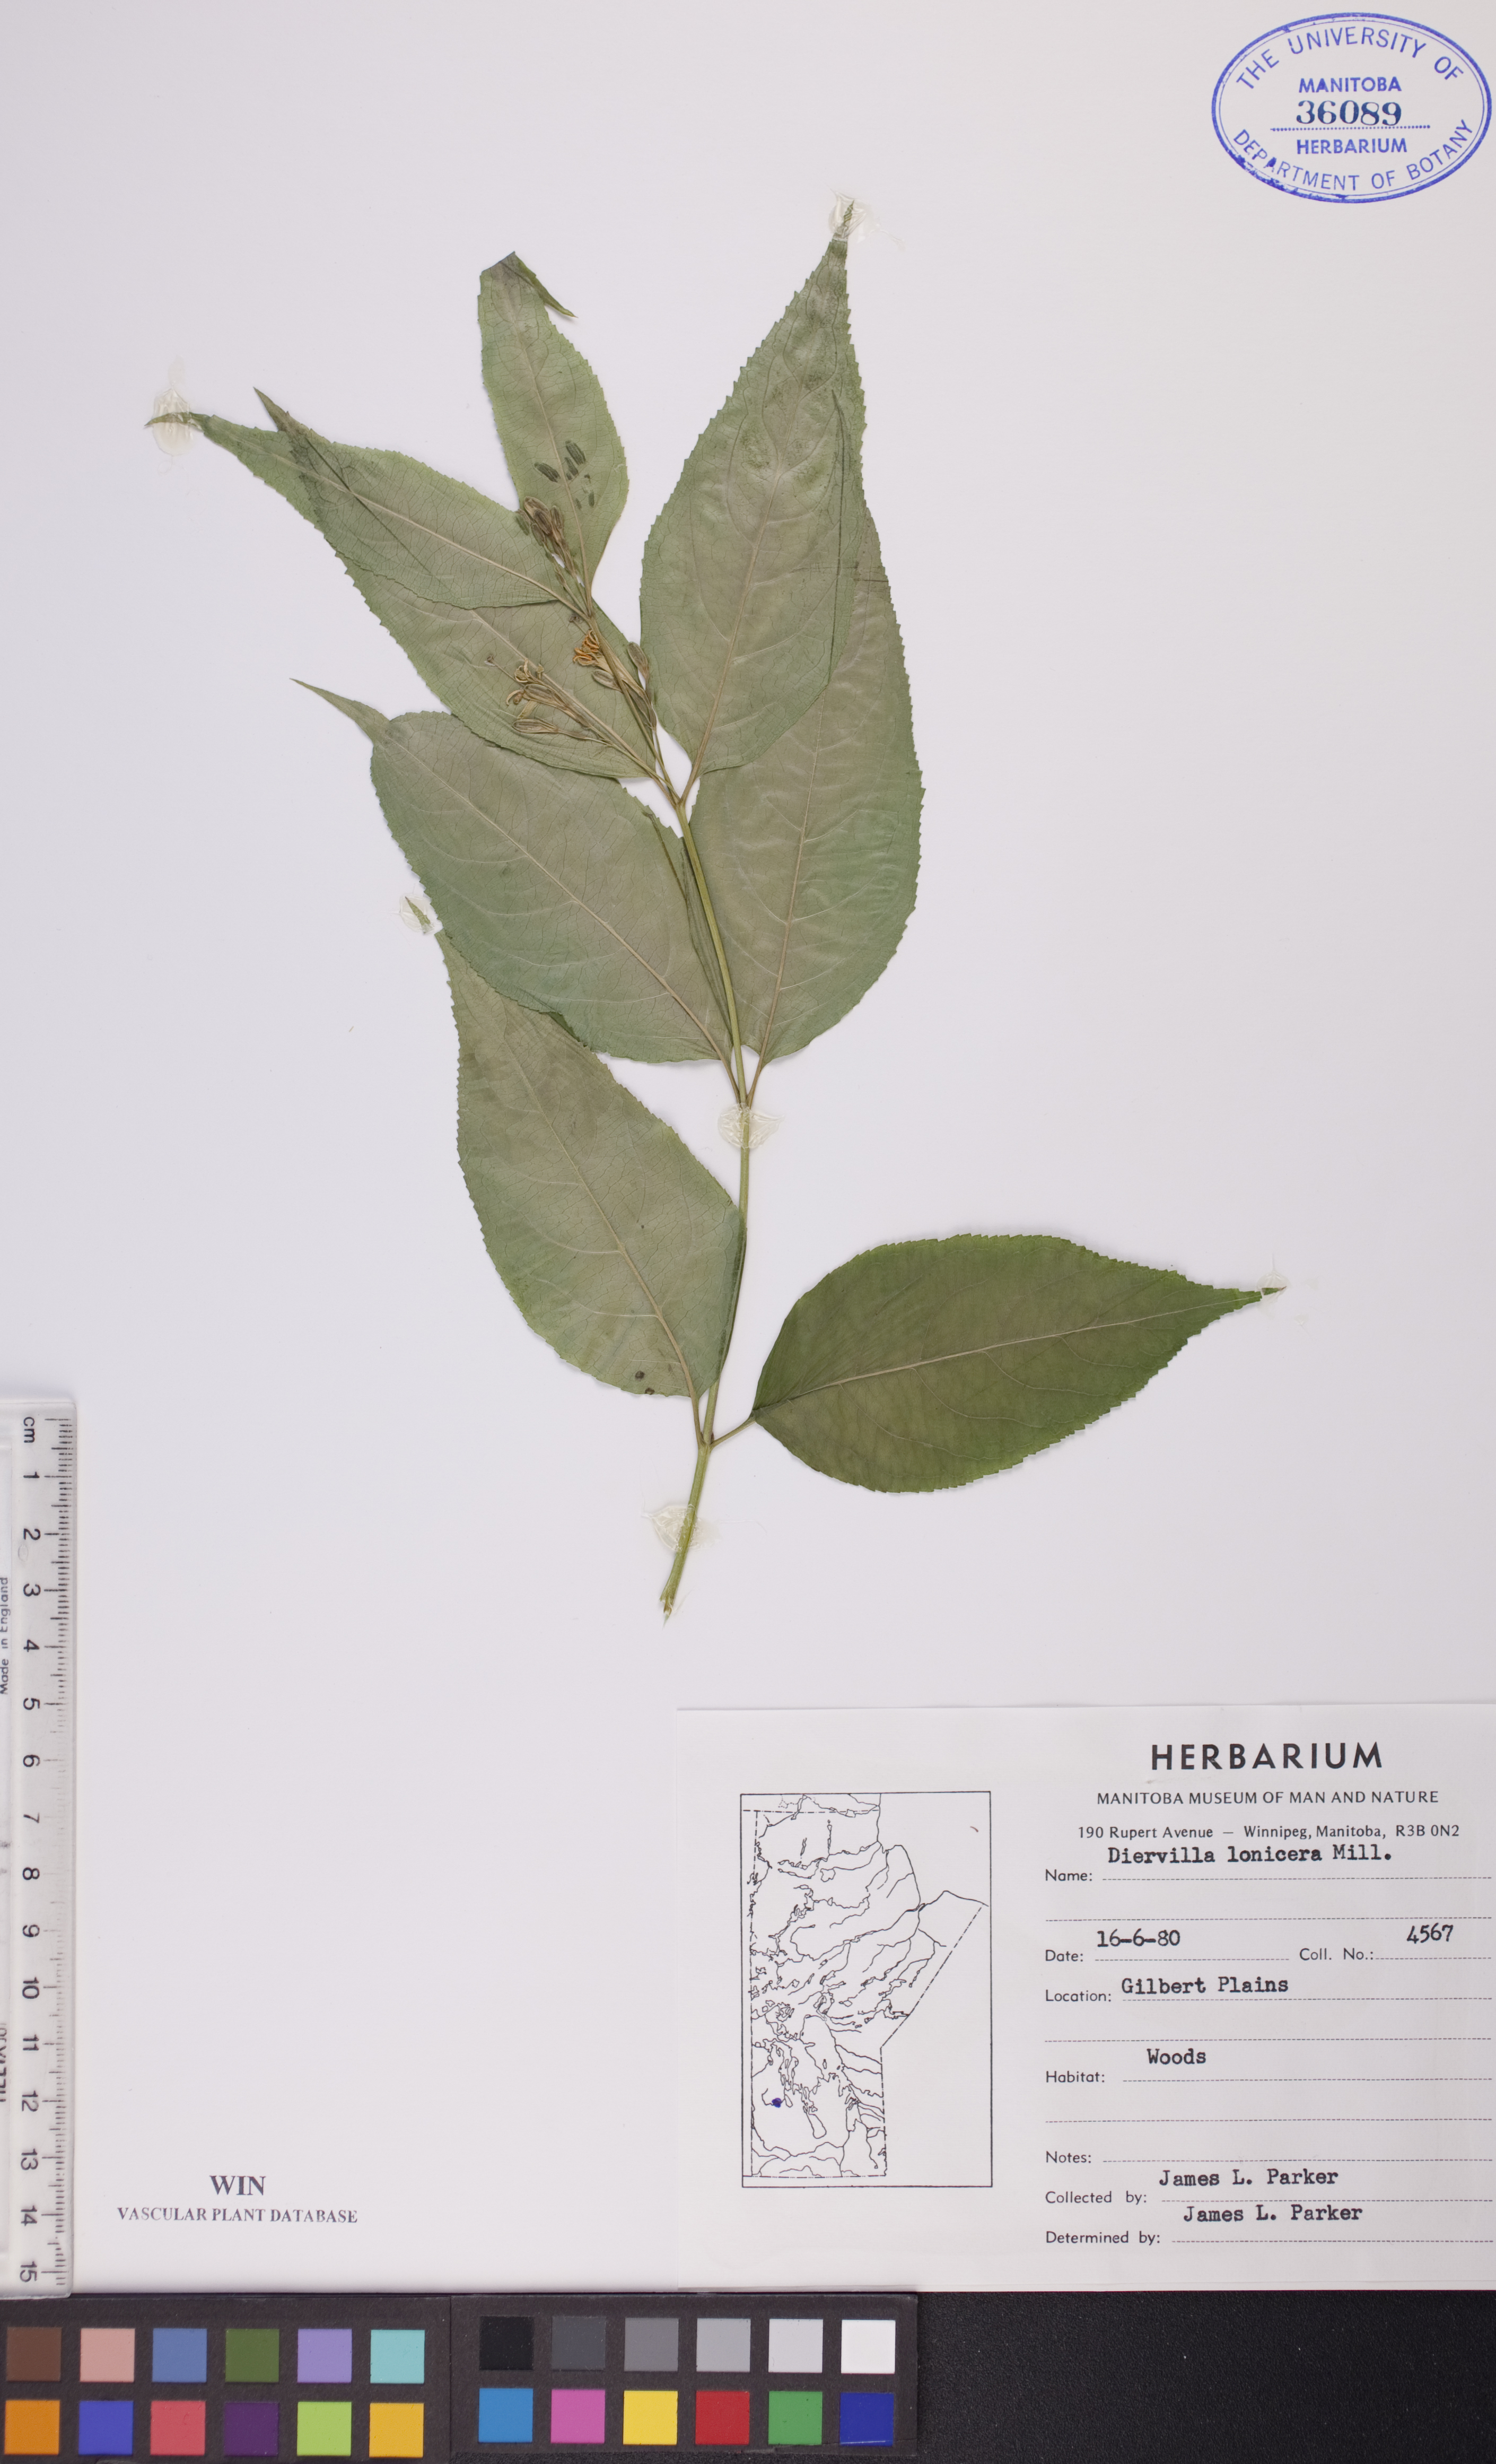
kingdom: Plantae
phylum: Tracheophyta
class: Magnoliopsida
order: Dipsacales
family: Caprifoliaceae
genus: Diervilla
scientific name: Diervilla lonicera
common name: Bush-honeysuckle
